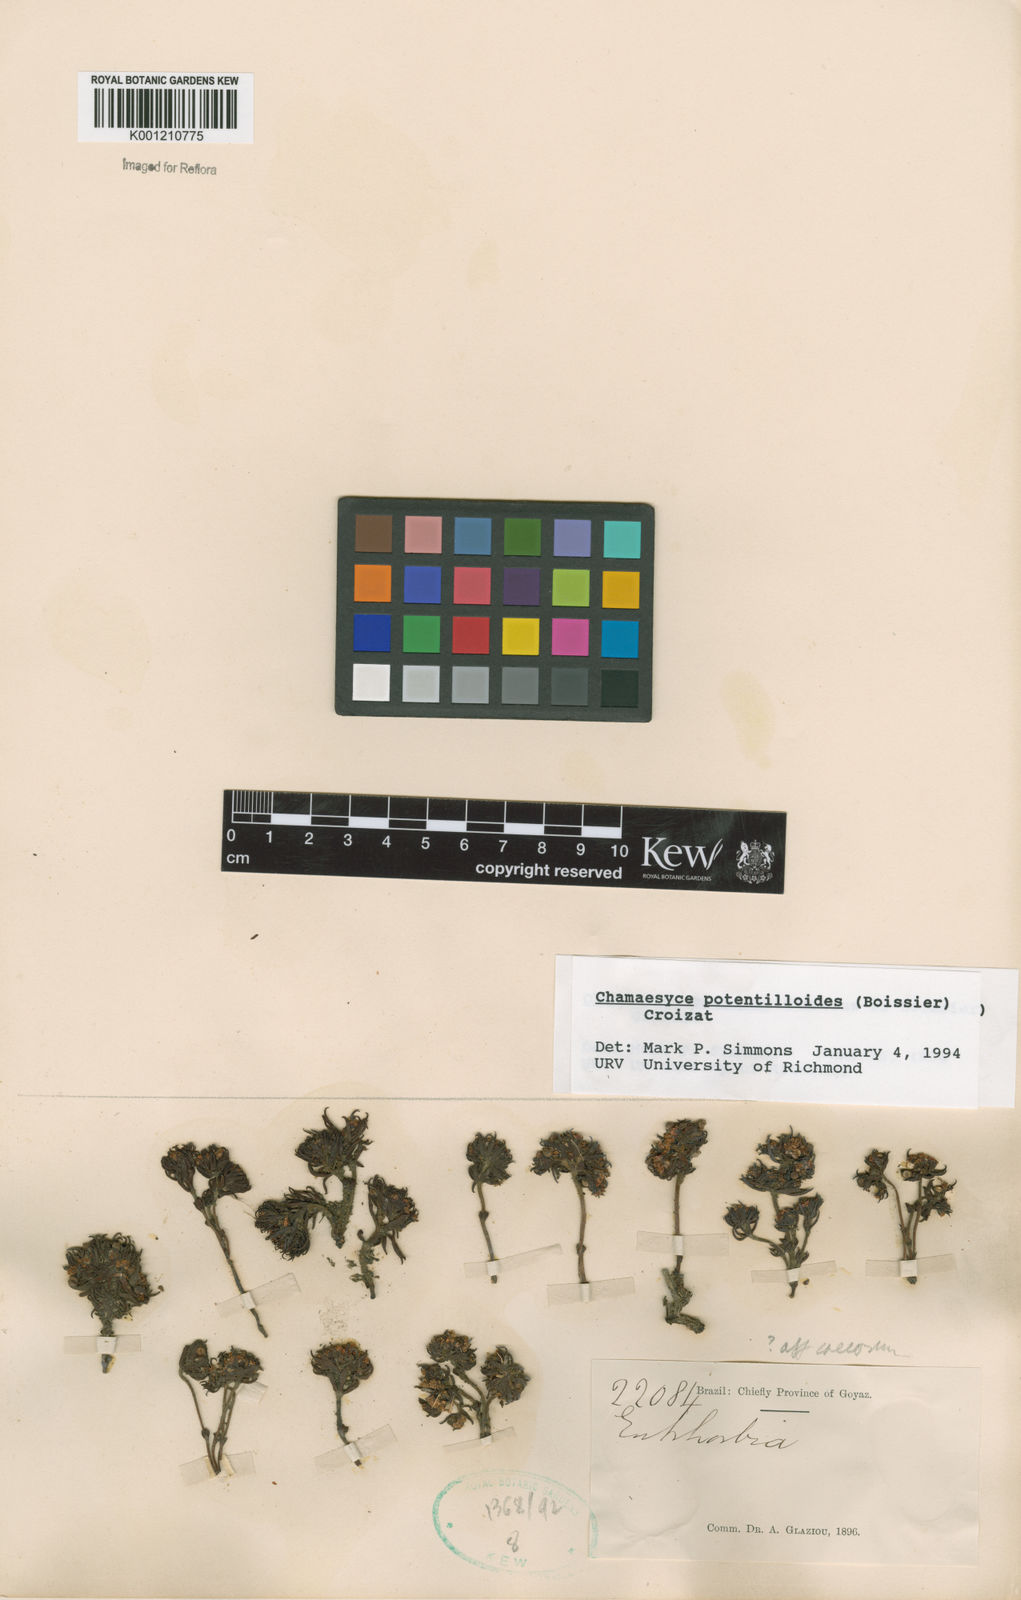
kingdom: Plantae
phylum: Tracheophyta
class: Magnoliopsida
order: Malpighiales
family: Euphorbiaceae
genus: Euphorbia
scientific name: Euphorbia potentilloides
